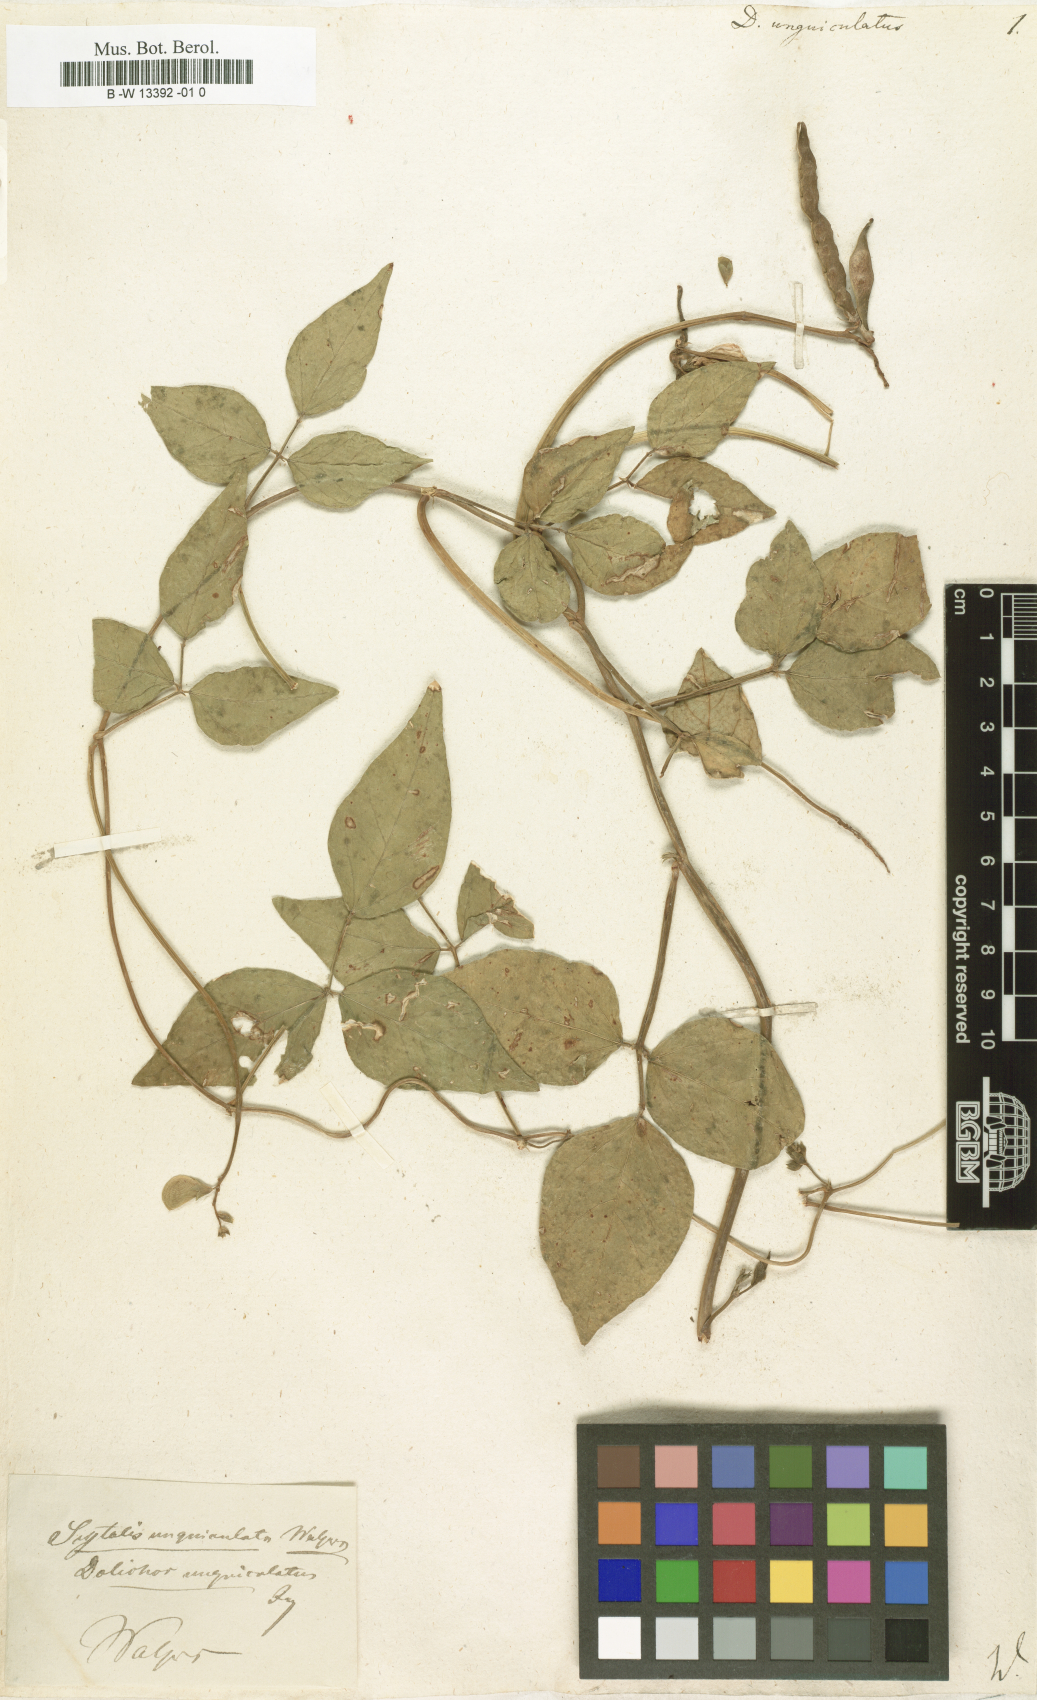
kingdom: Plantae
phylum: Tracheophyta
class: Magnoliopsida
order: Fabales
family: Fabaceae
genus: Vigna
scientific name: Vigna unguiculata
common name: Cowpea
